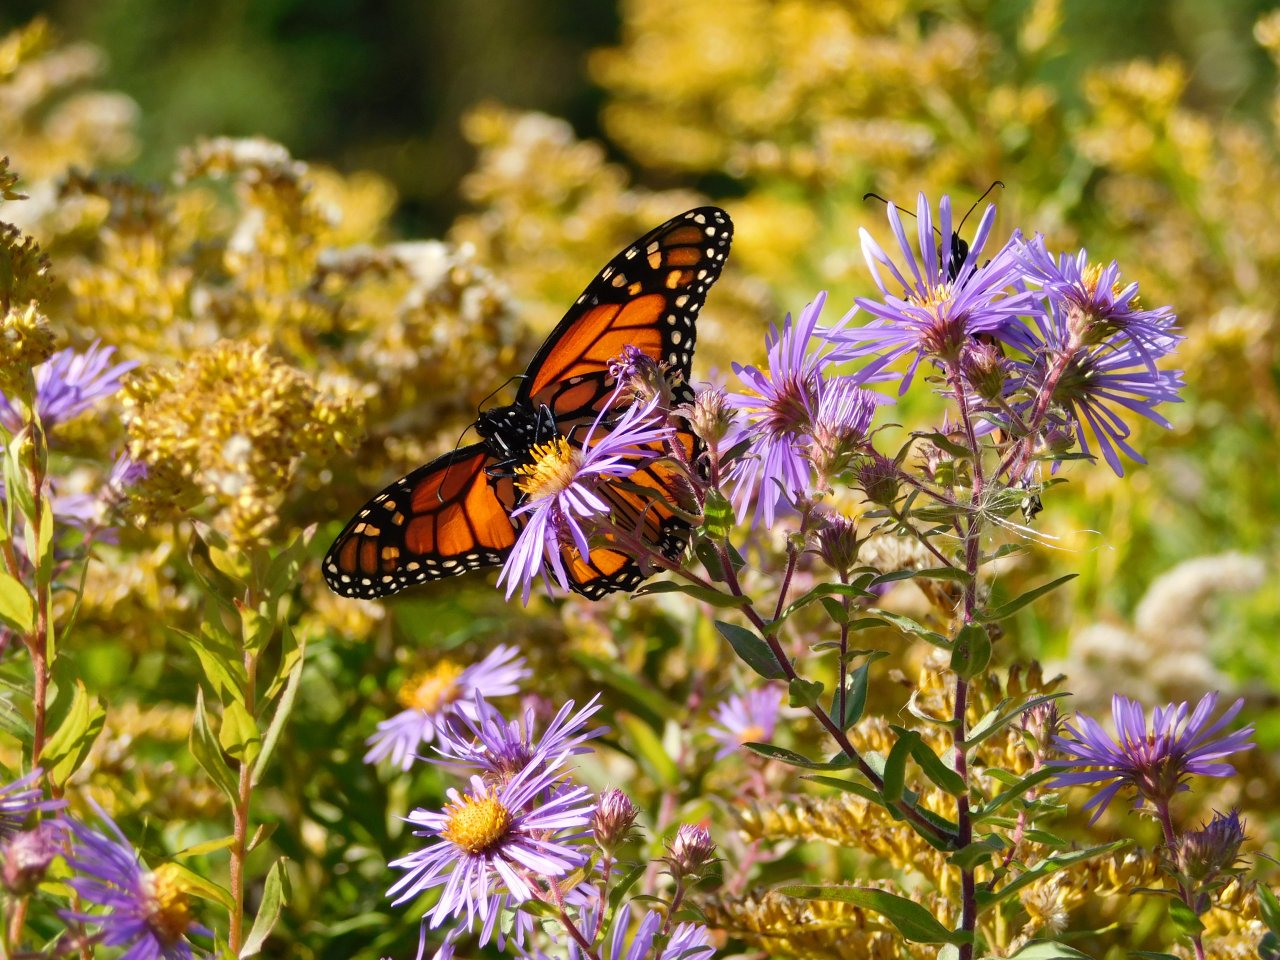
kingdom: Animalia
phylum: Arthropoda
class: Insecta
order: Lepidoptera
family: Nymphalidae
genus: Danaus
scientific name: Danaus plexippus
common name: Monarch
